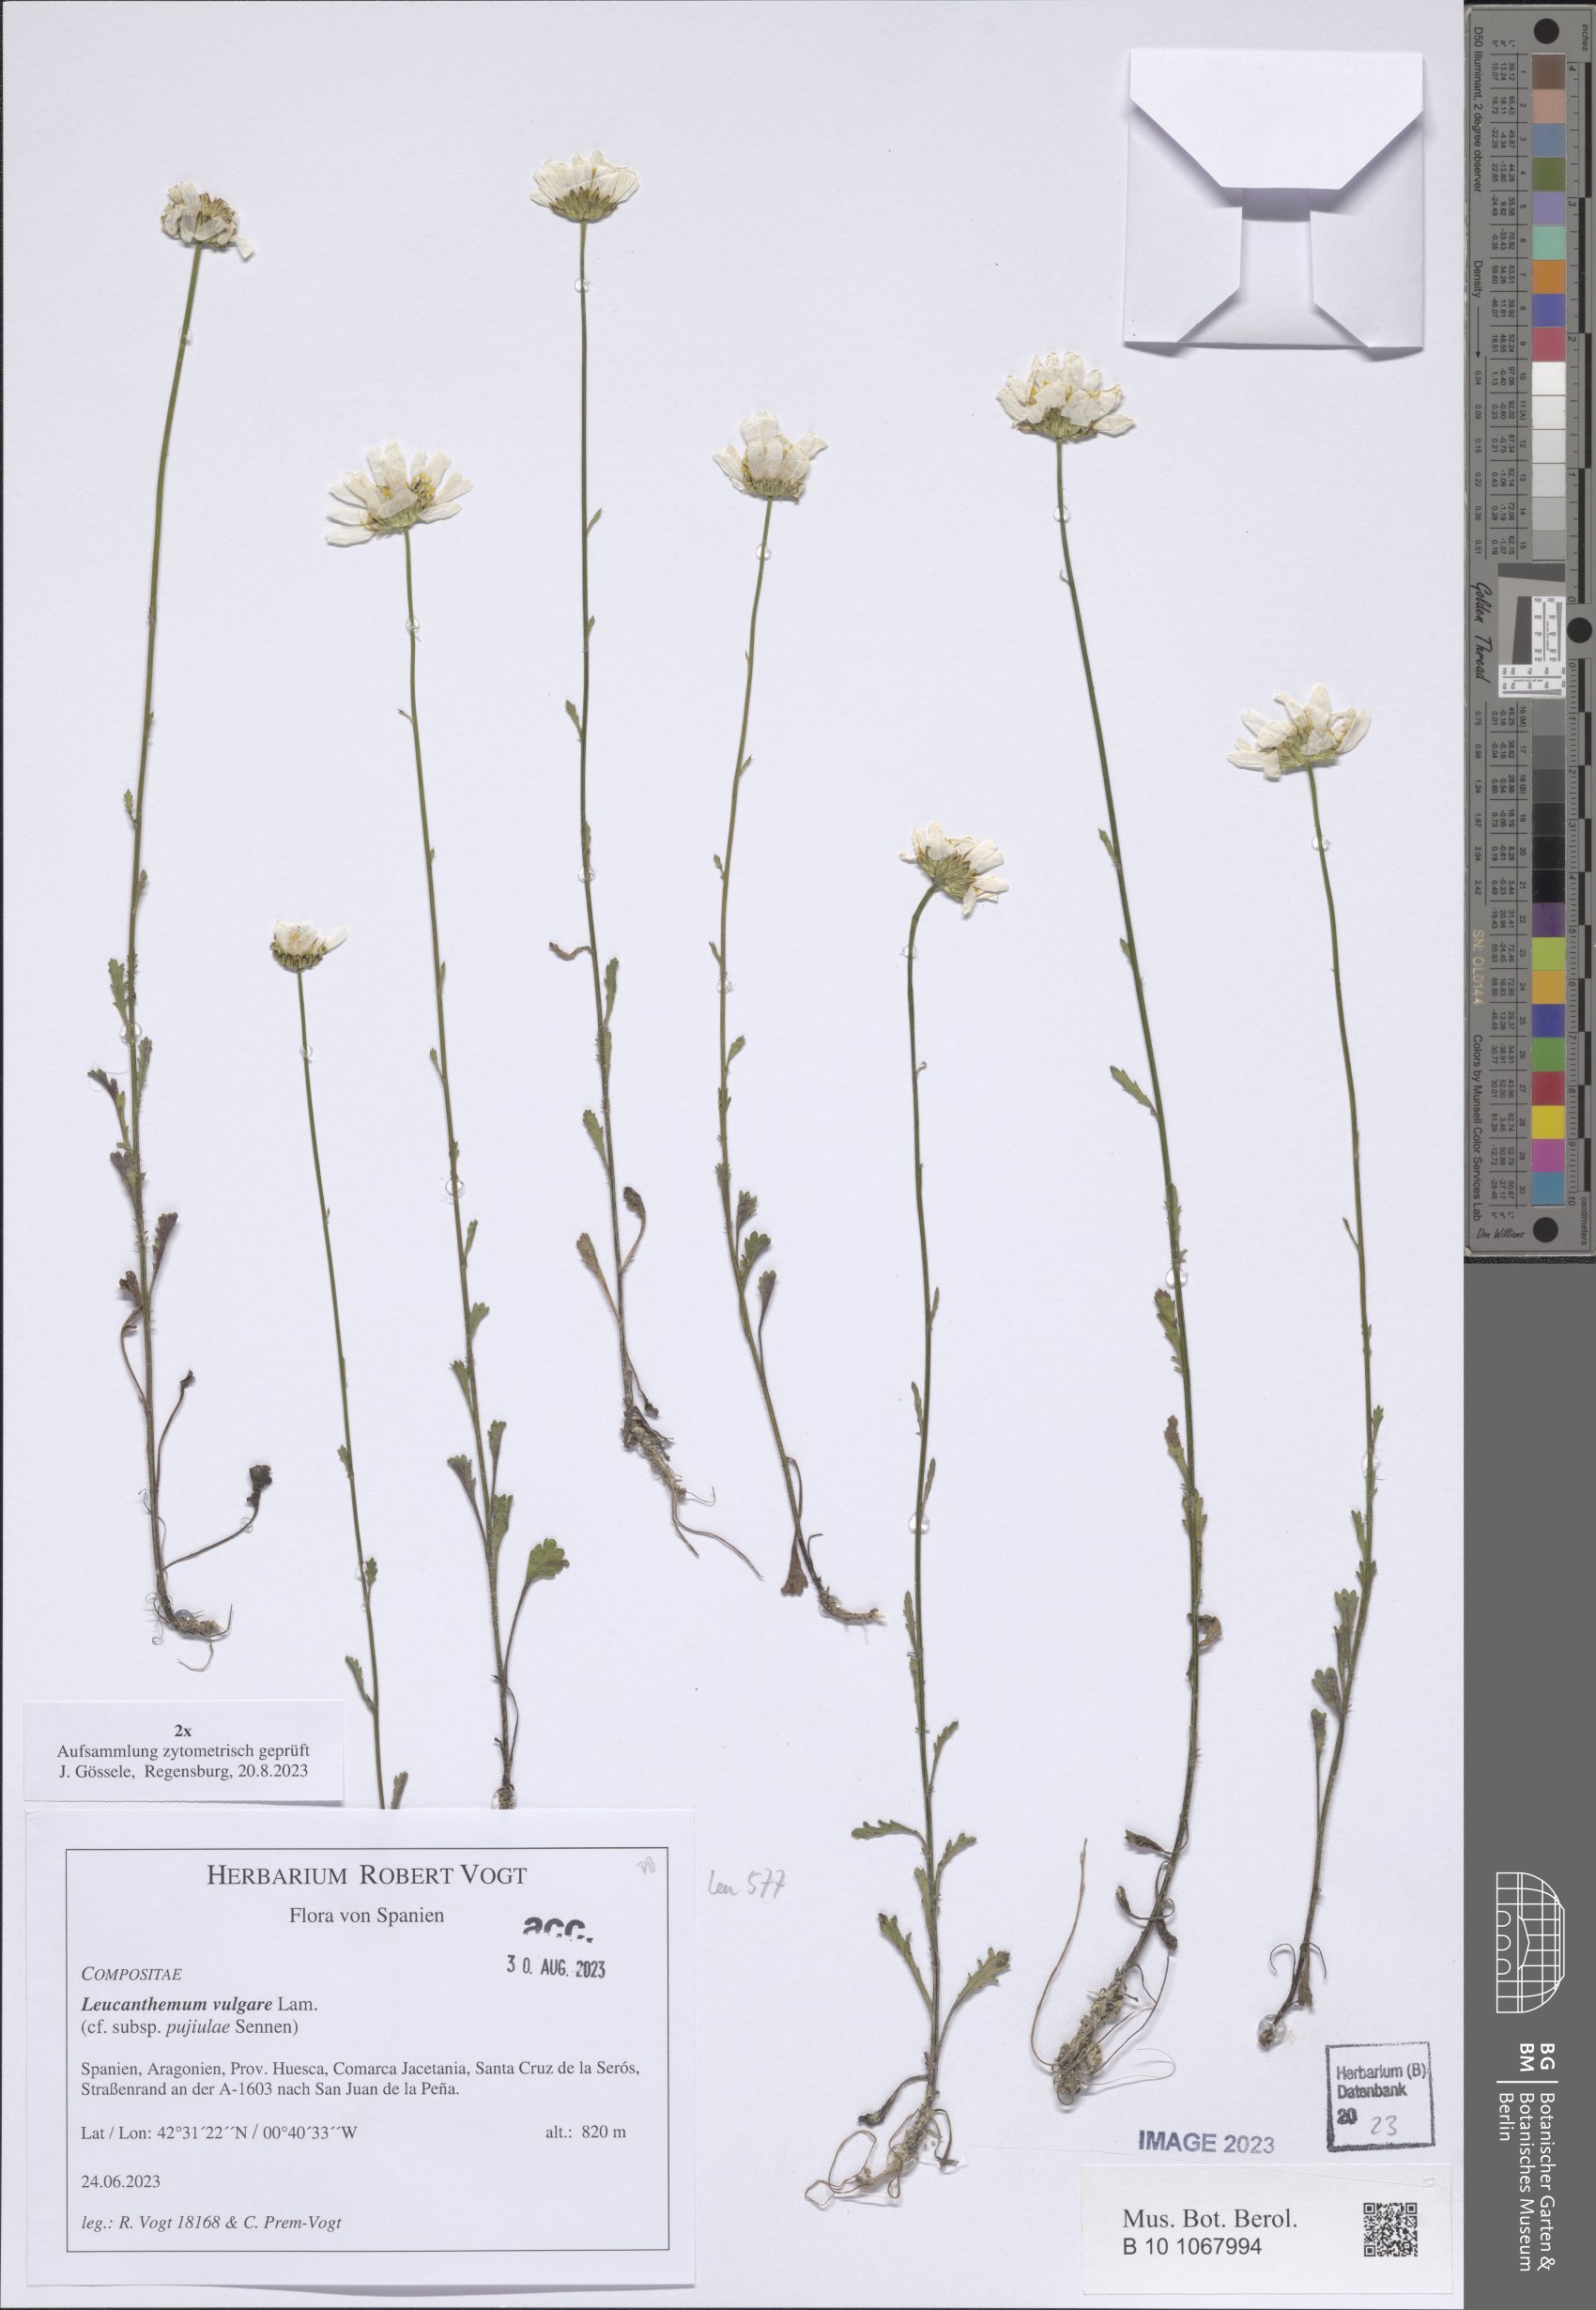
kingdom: Plantae
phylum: Tracheophyta
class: Magnoliopsida
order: Asterales
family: Asteraceae
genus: Leucanthemum
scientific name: Leucanthemum vulgare
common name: Oxeye daisy
